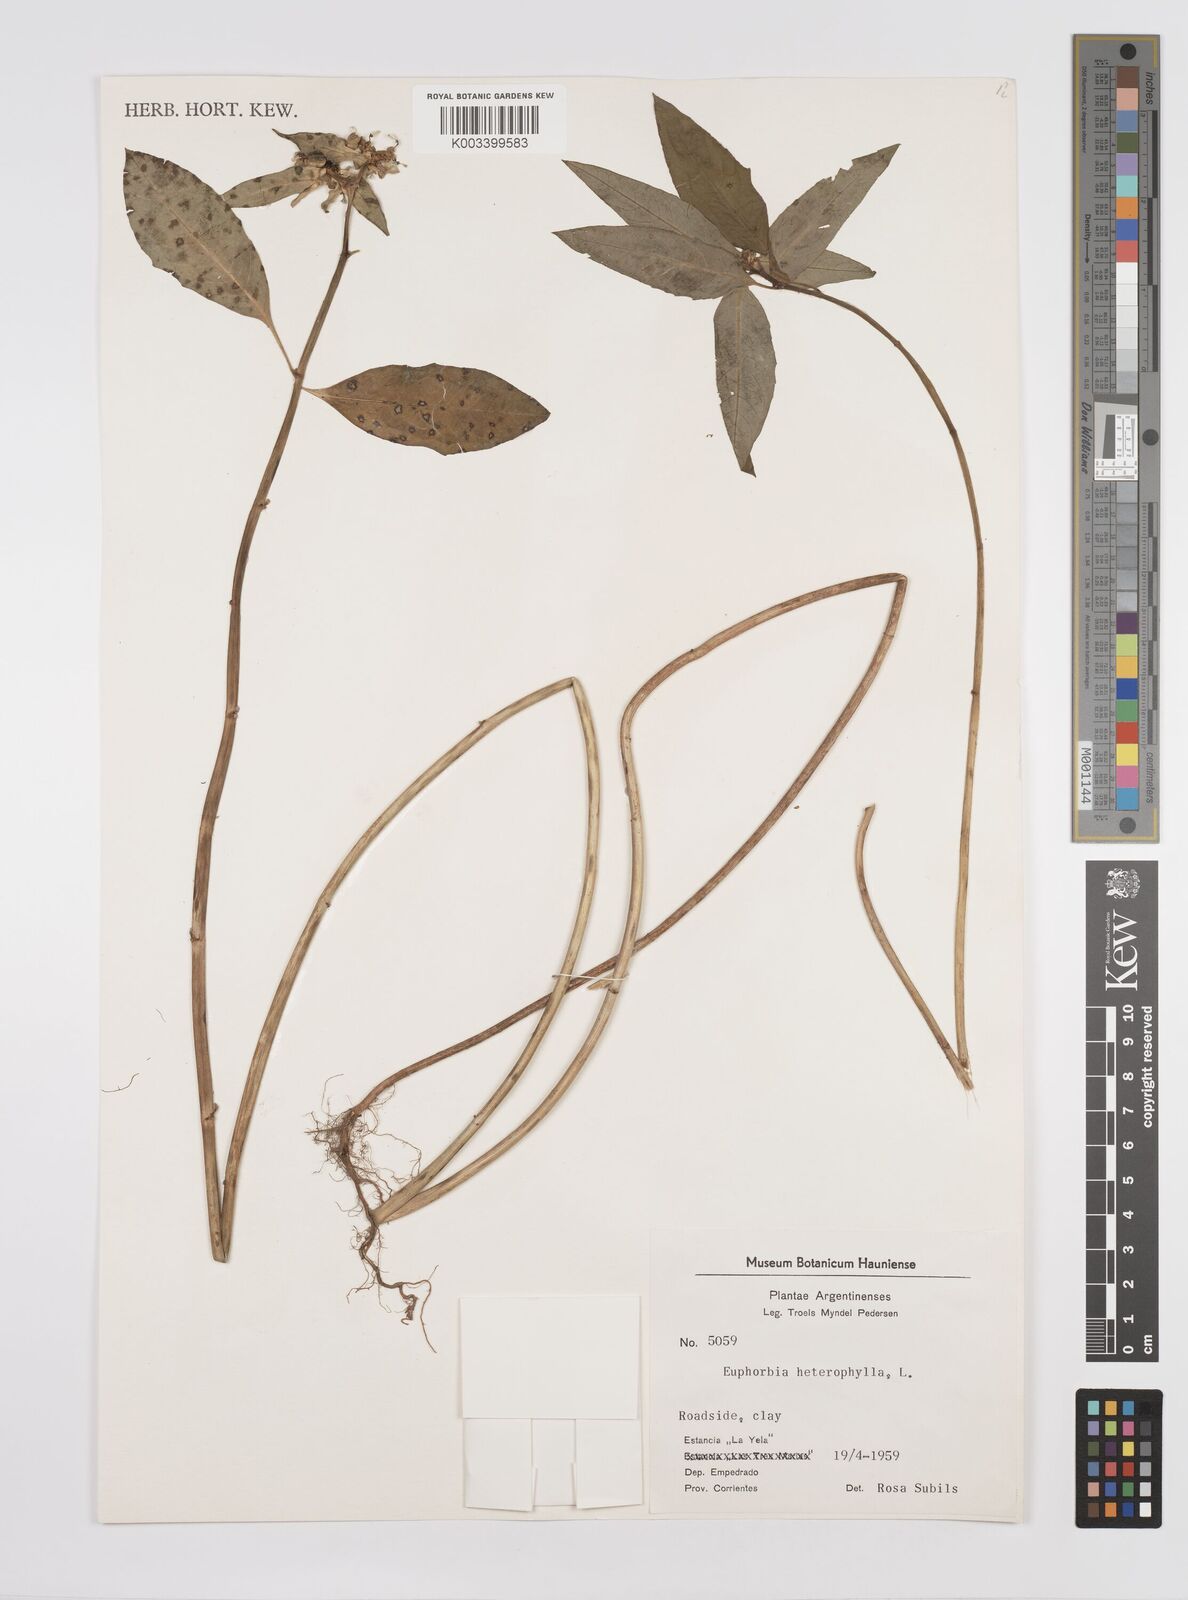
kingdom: Plantae
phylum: Tracheophyta
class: Magnoliopsida
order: Malpighiales
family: Euphorbiaceae
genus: Euphorbia
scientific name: Euphorbia
